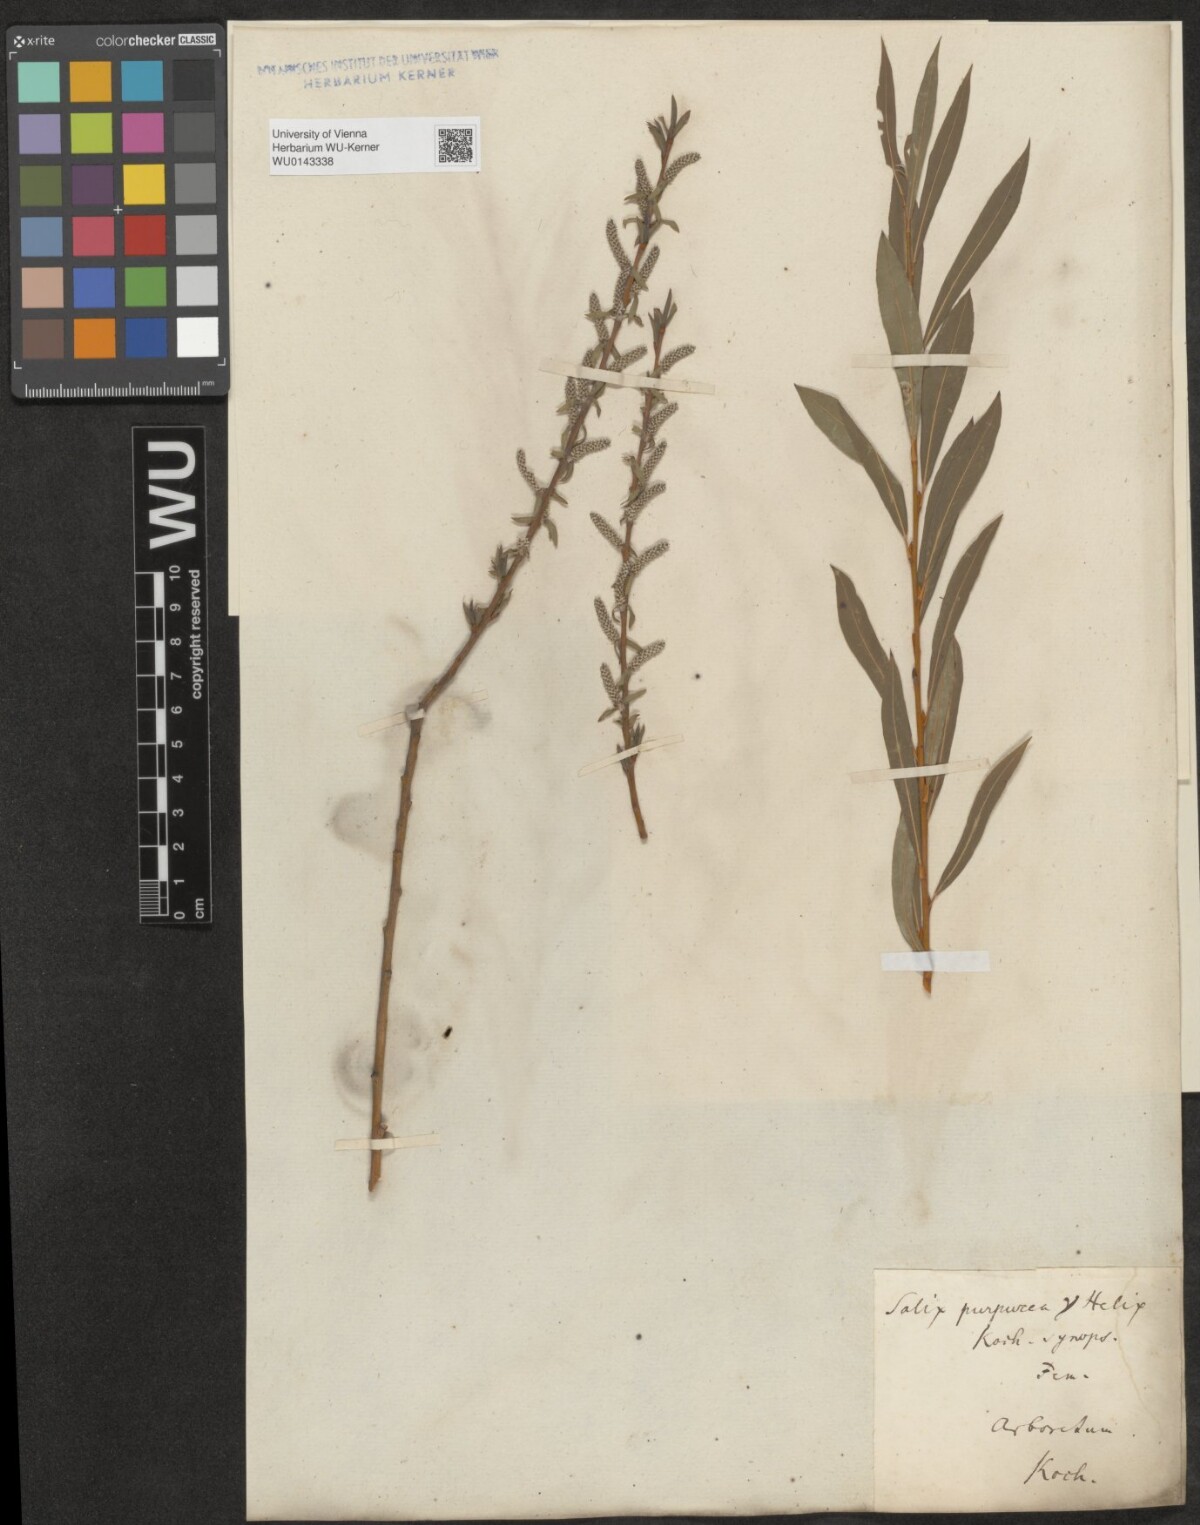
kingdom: Plantae
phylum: Tracheophyta
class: Magnoliopsida
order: Malpighiales
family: Salicaceae
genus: Salix
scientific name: Salix purpurea
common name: Purple willow
